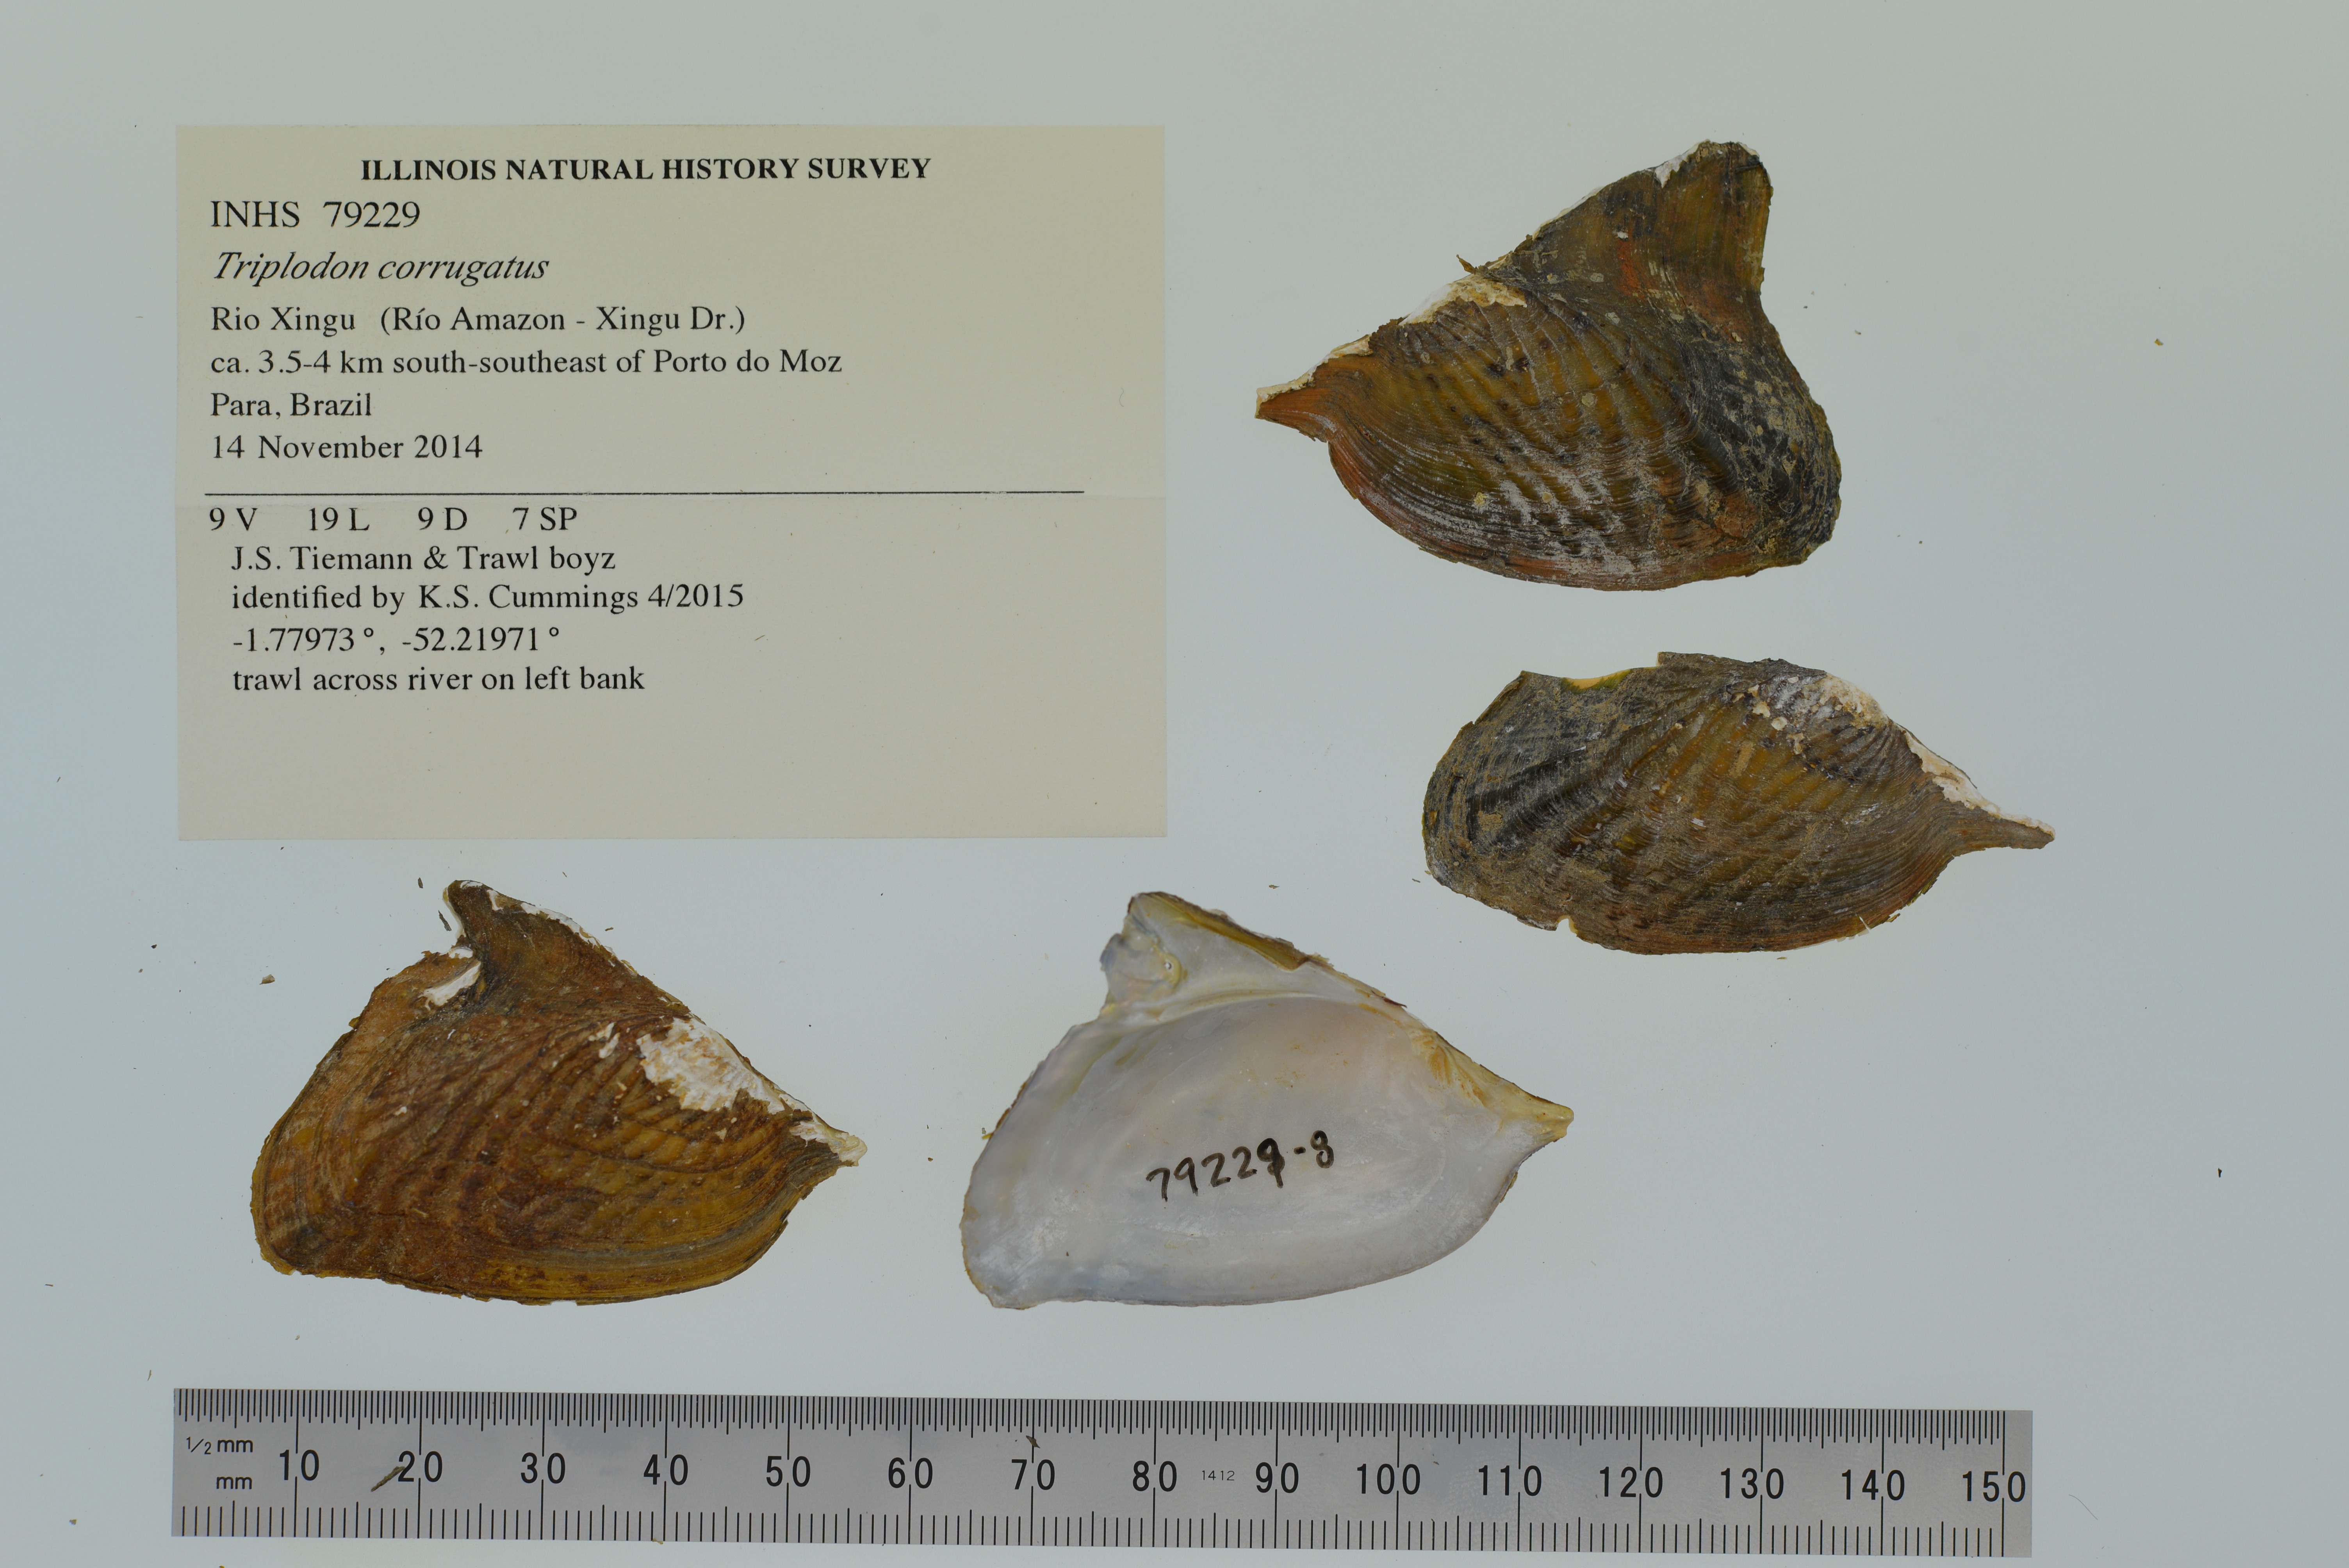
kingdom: Animalia
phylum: Mollusca
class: Bivalvia
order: Unionida
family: Hyriidae
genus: Triplodon
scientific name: Triplodon corrugatus
